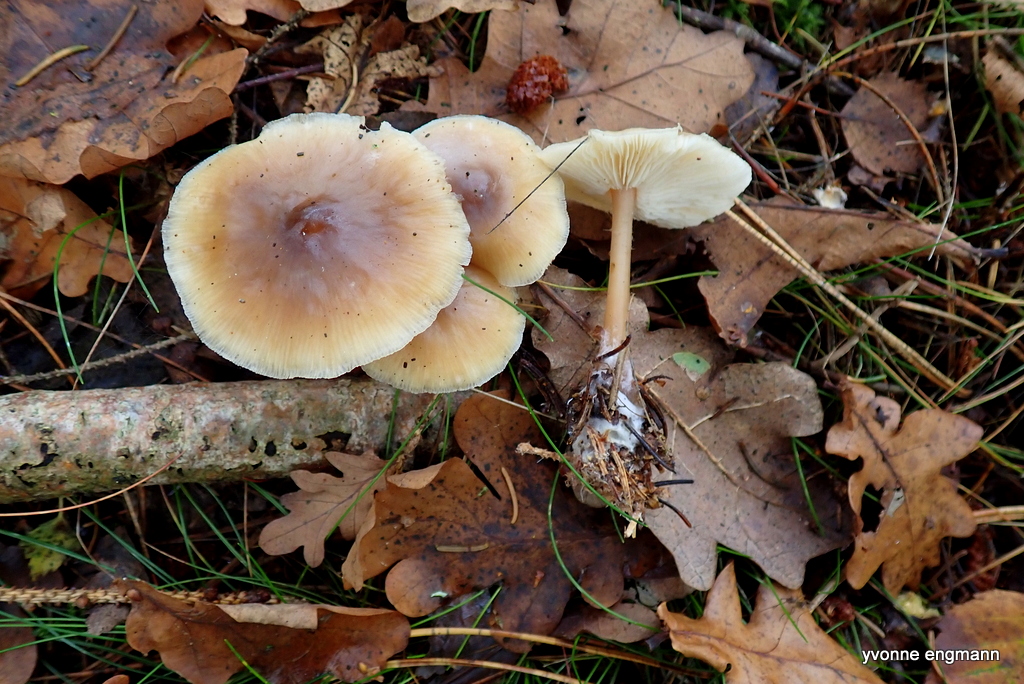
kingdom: Fungi
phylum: Basidiomycota
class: Agaricomycetes
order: Agaricales
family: Omphalotaceae
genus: Rhodocollybia
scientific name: Rhodocollybia asema
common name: horngrå fladhat
